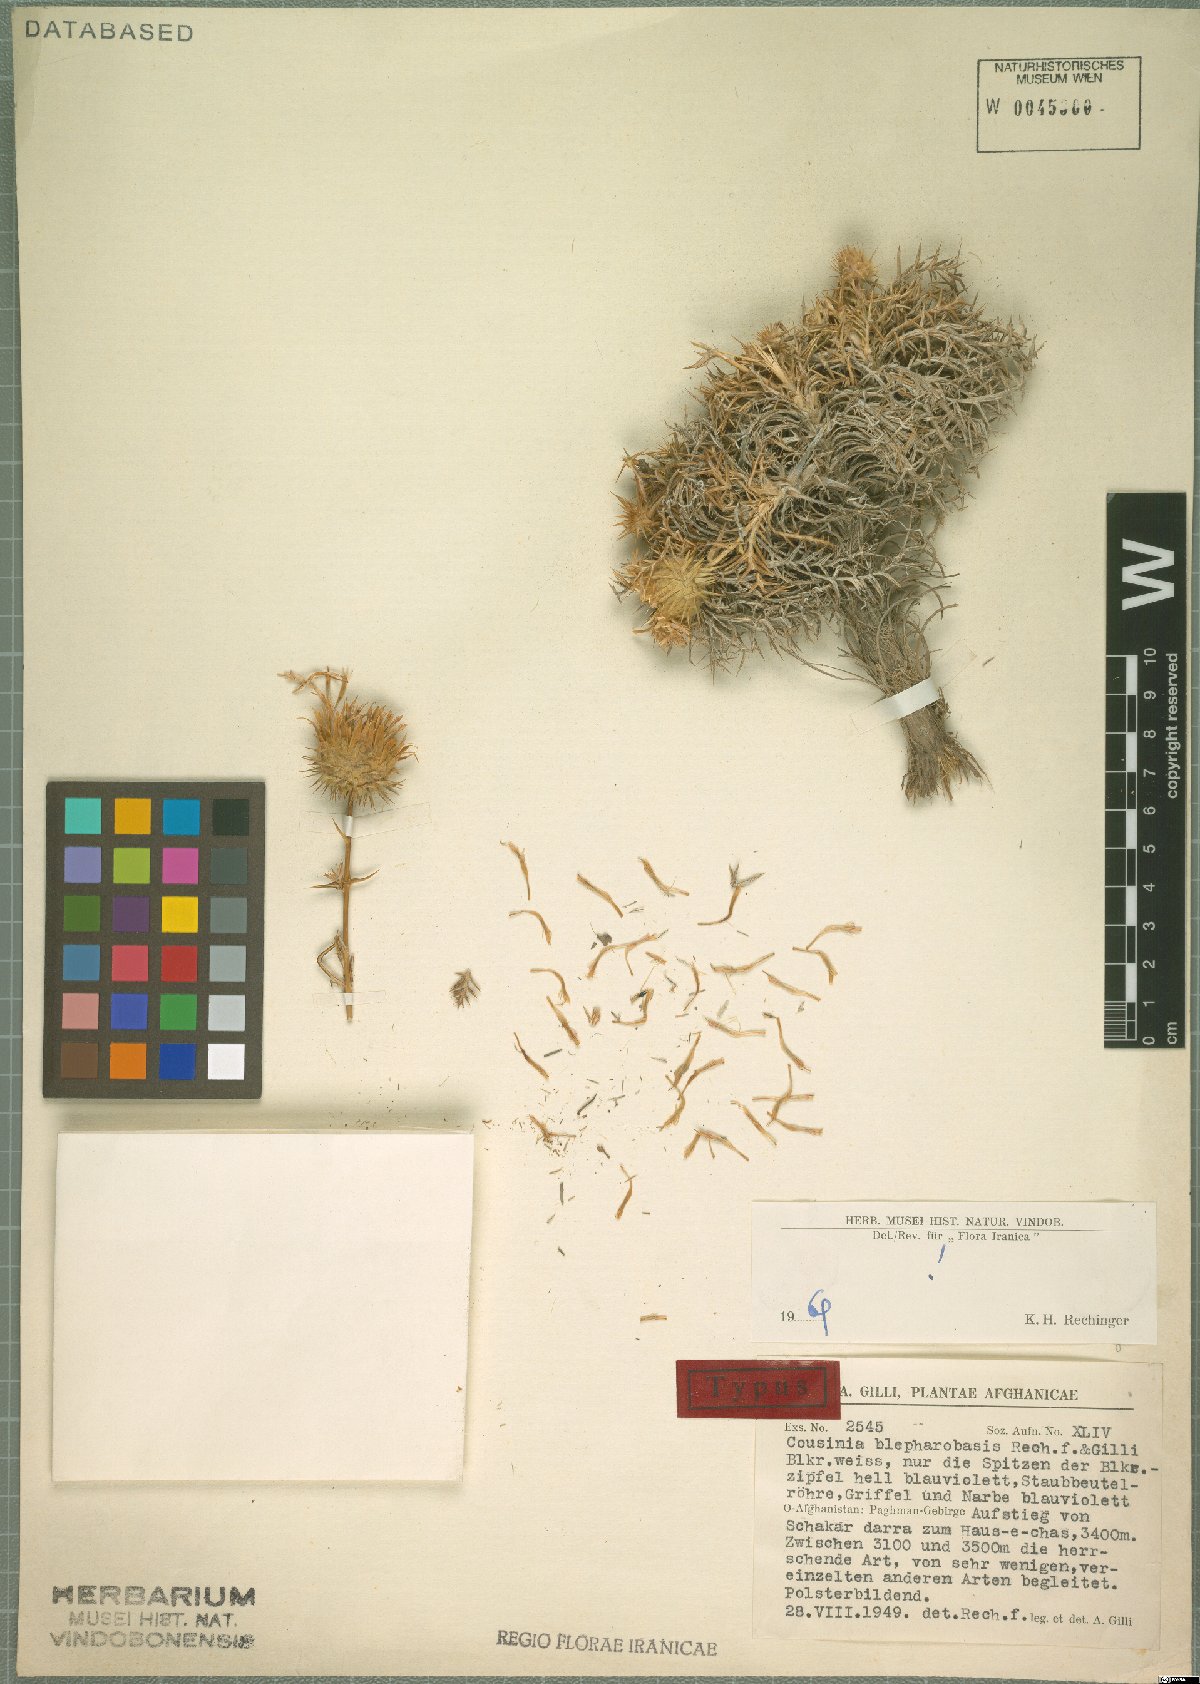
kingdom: Plantae
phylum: Tracheophyta
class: Magnoliopsida
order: Asterales
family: Asteraceae
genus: Cousinia
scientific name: Cousinia blepharobasis
